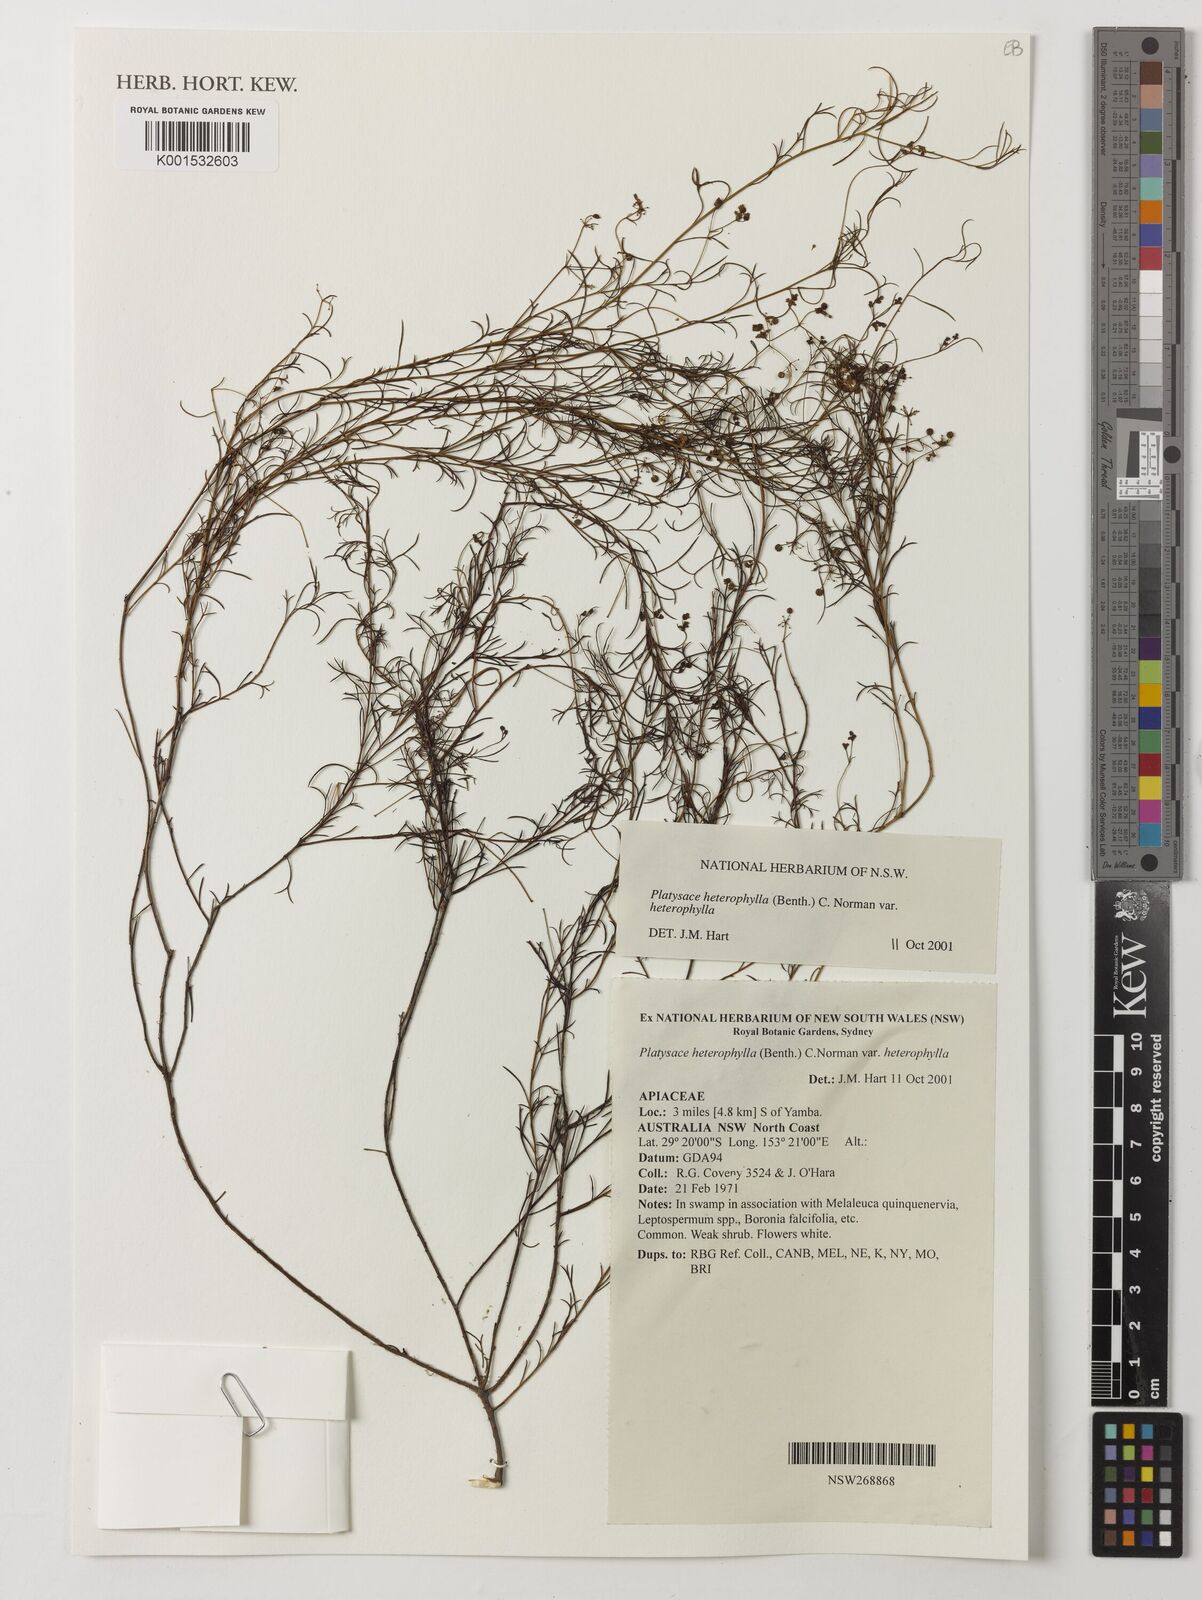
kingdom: Plantae
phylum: Tracheophyta
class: Magnoliopsida
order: Apiales
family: Apiaceae
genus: Platysace
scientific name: Platysace heterophylla
